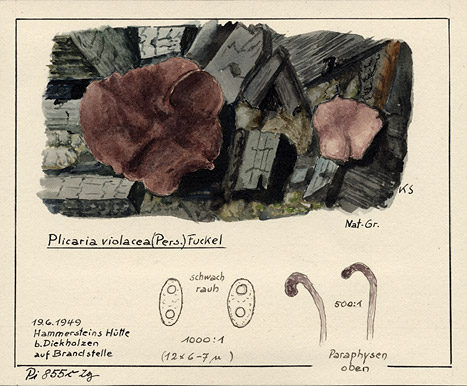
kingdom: Fungi
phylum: Ascomycota
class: Pezizomycetes
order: Pezizales
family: Pezizaceae
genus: Geoscypha
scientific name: Geoscypha violacea
